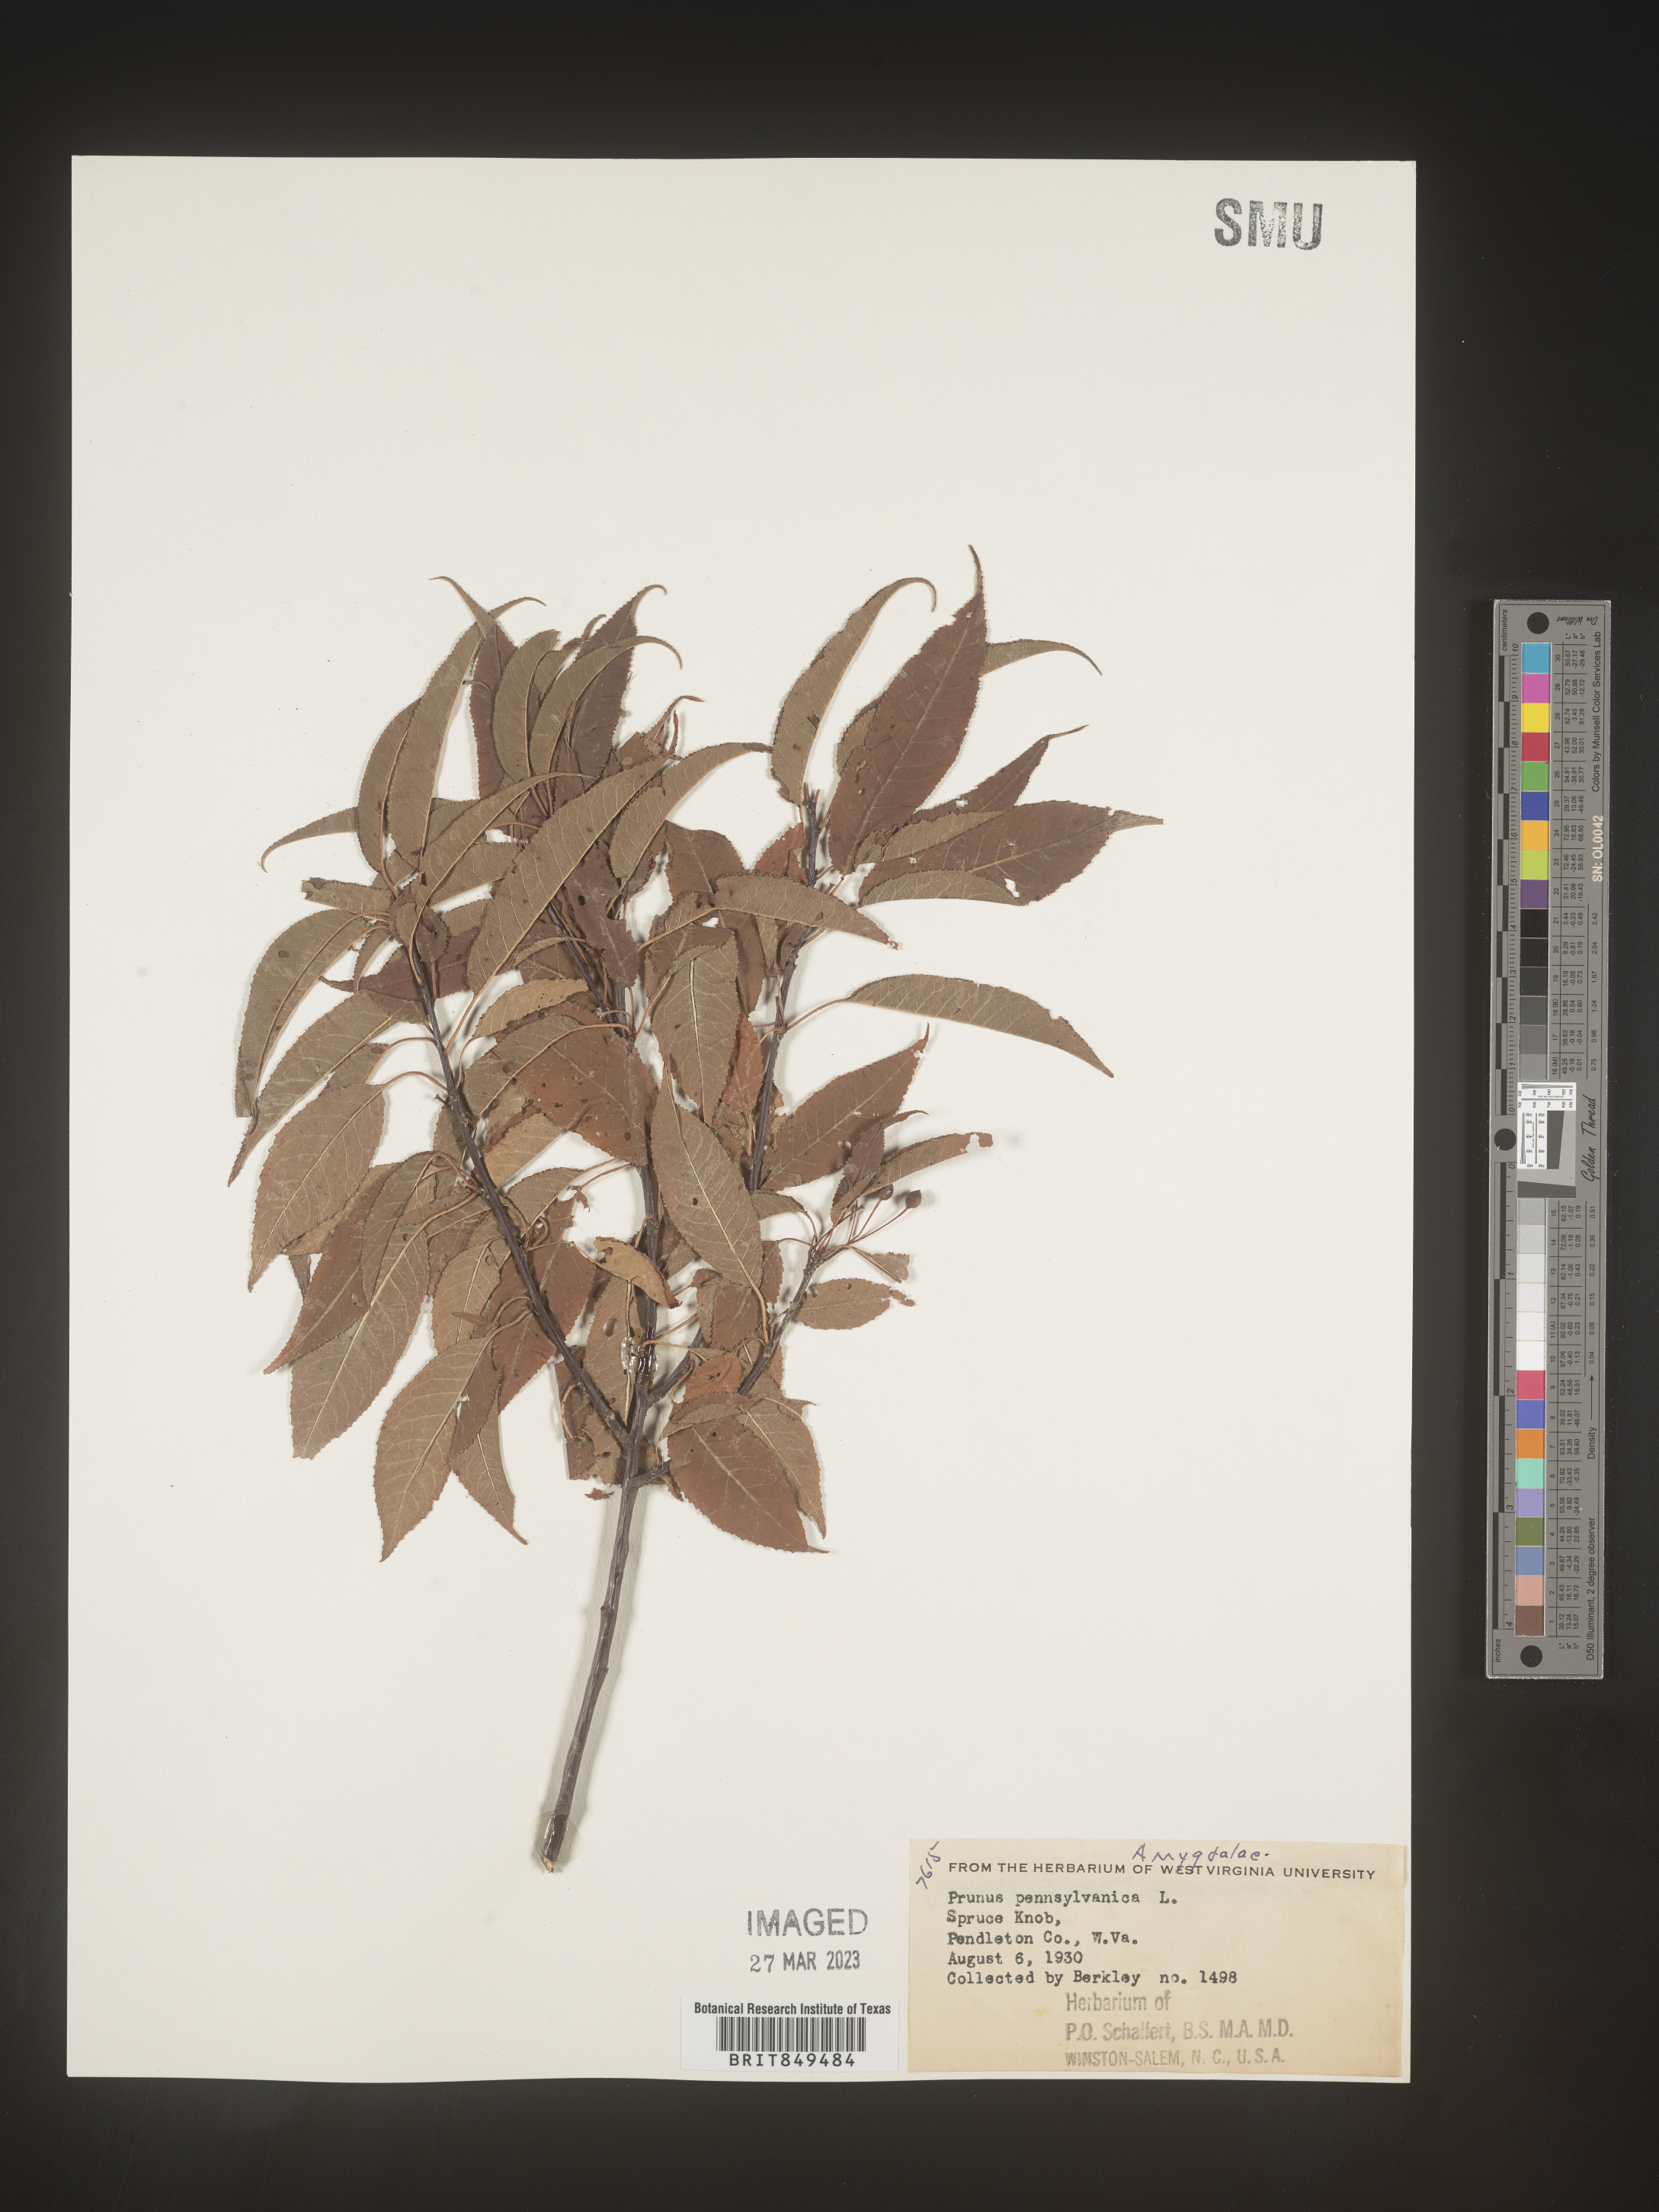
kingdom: Plantae
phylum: Tracheophyta
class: Magnoliopsida
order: Rosales
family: Rosaceae
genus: Prunus
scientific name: Prunus pensylvanica
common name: Pin cherry
